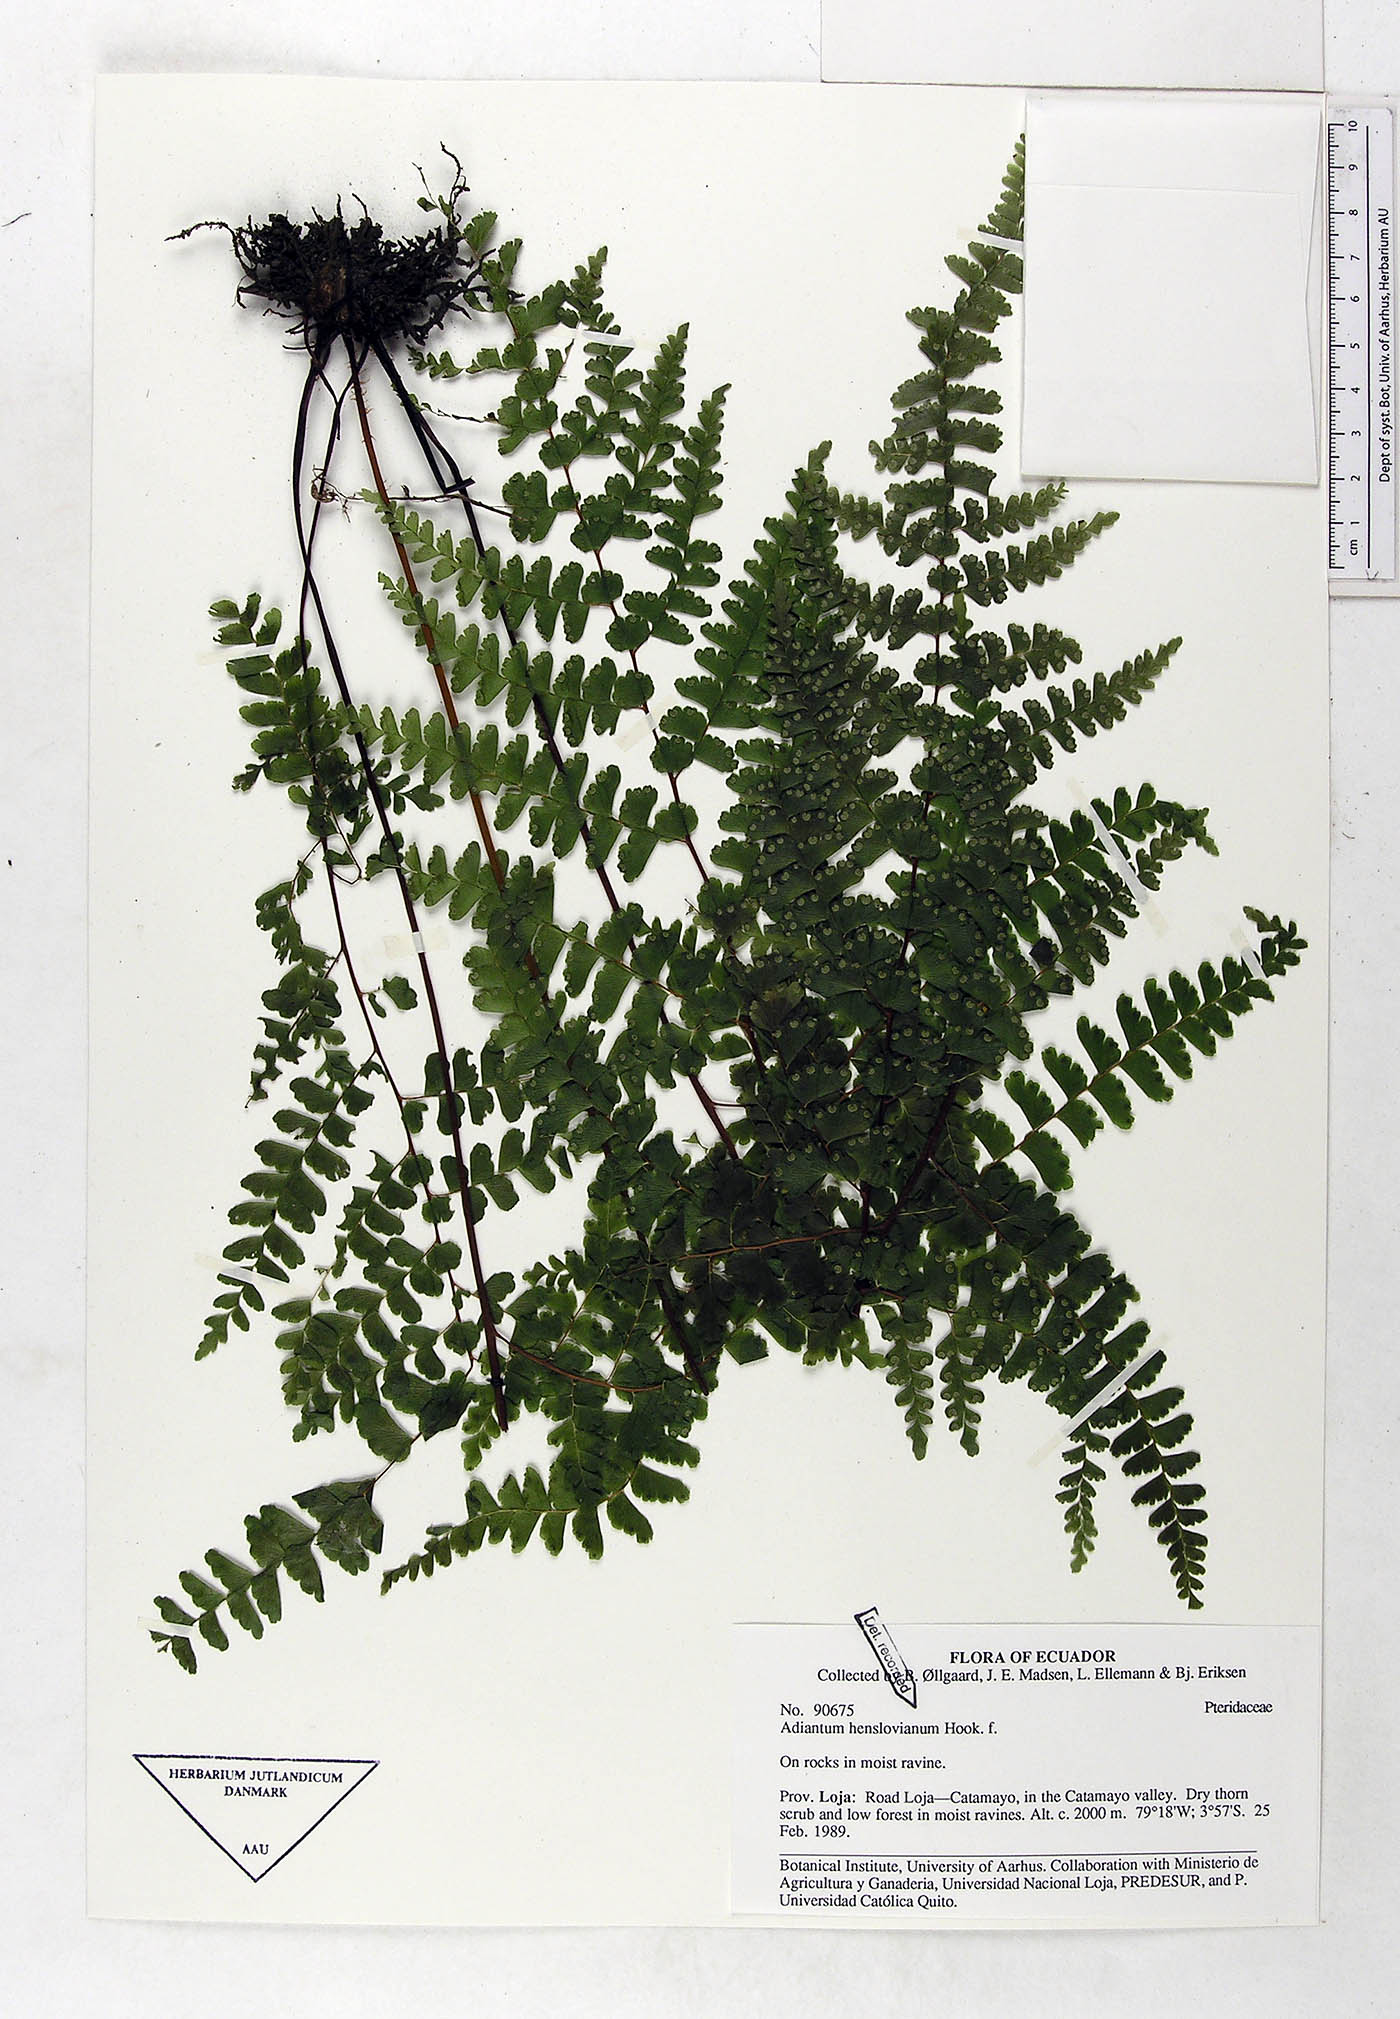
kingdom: Plantae
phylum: Tracheophyta
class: Polypodiopsida
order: Polypodiales
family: Pteridaceae
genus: Adiantum
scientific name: Adiantum henslovianum
